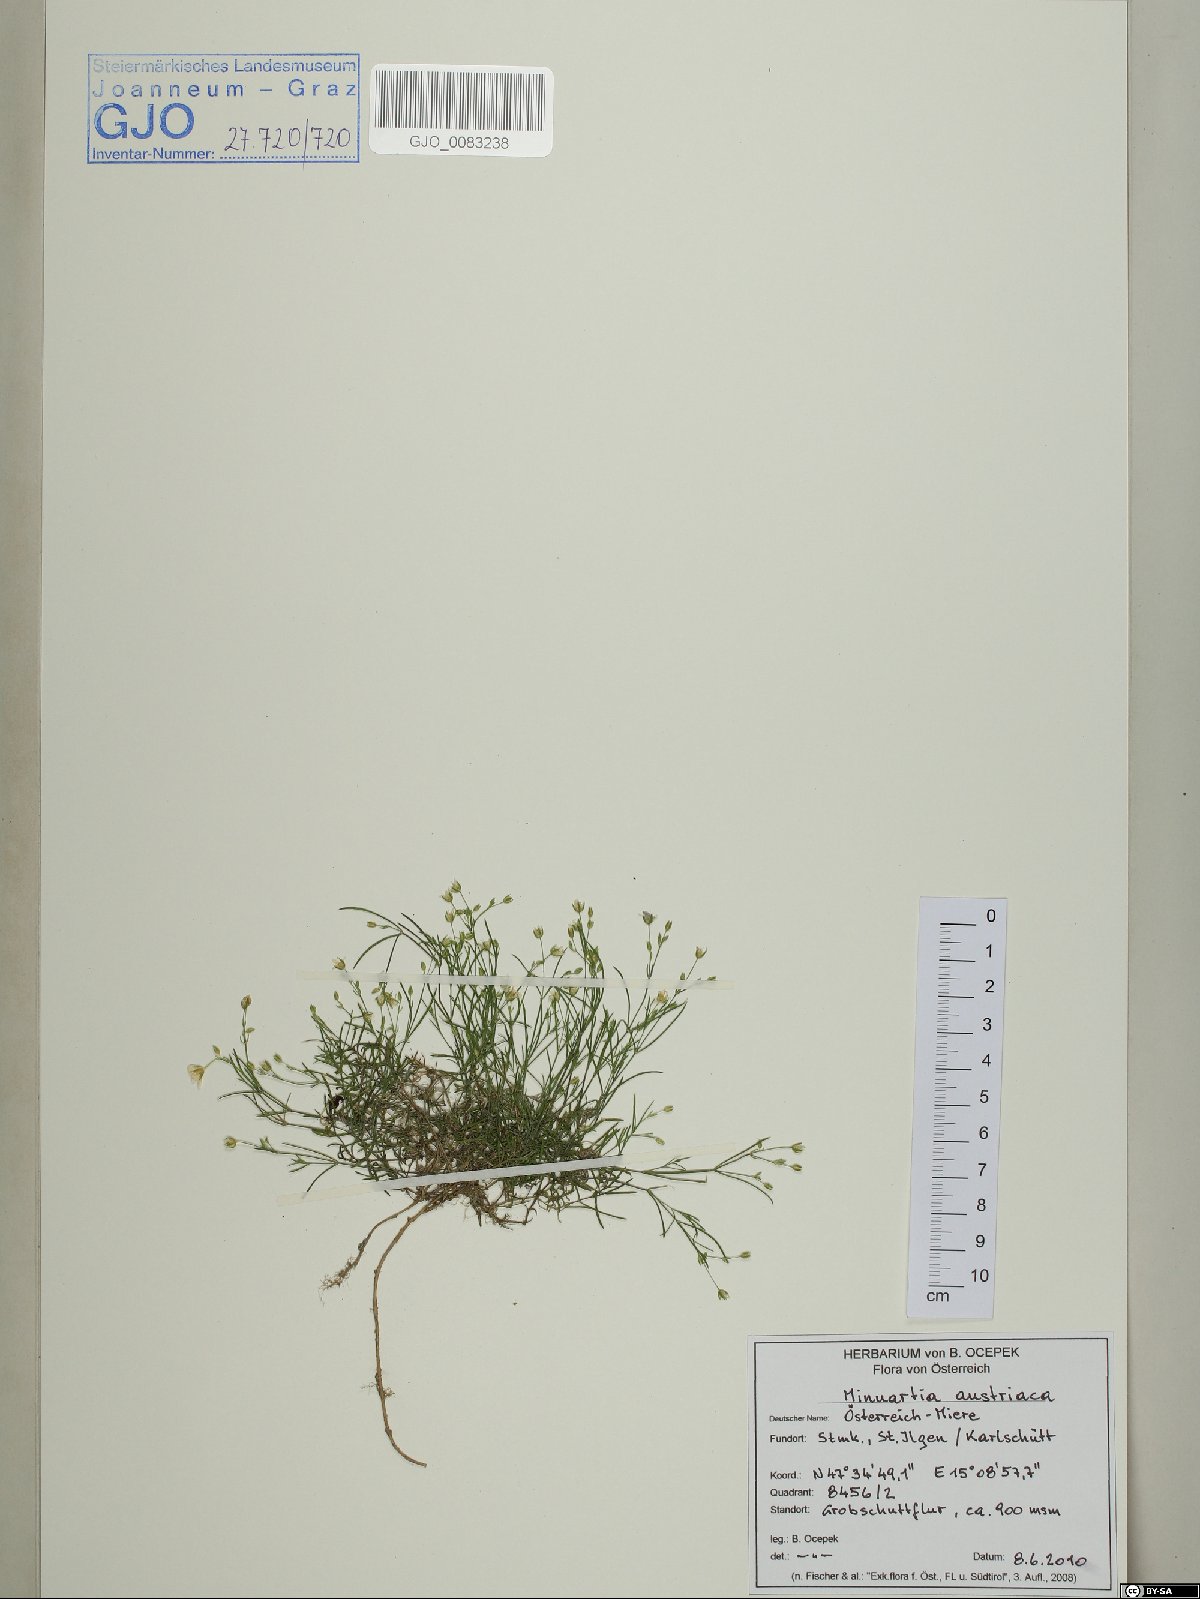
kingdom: Plantae
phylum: Tracheophyta
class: Magnoliopsida
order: Caryophyllales
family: Caryophyllaceae
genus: Sabulina
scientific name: Sabulina austriaca
